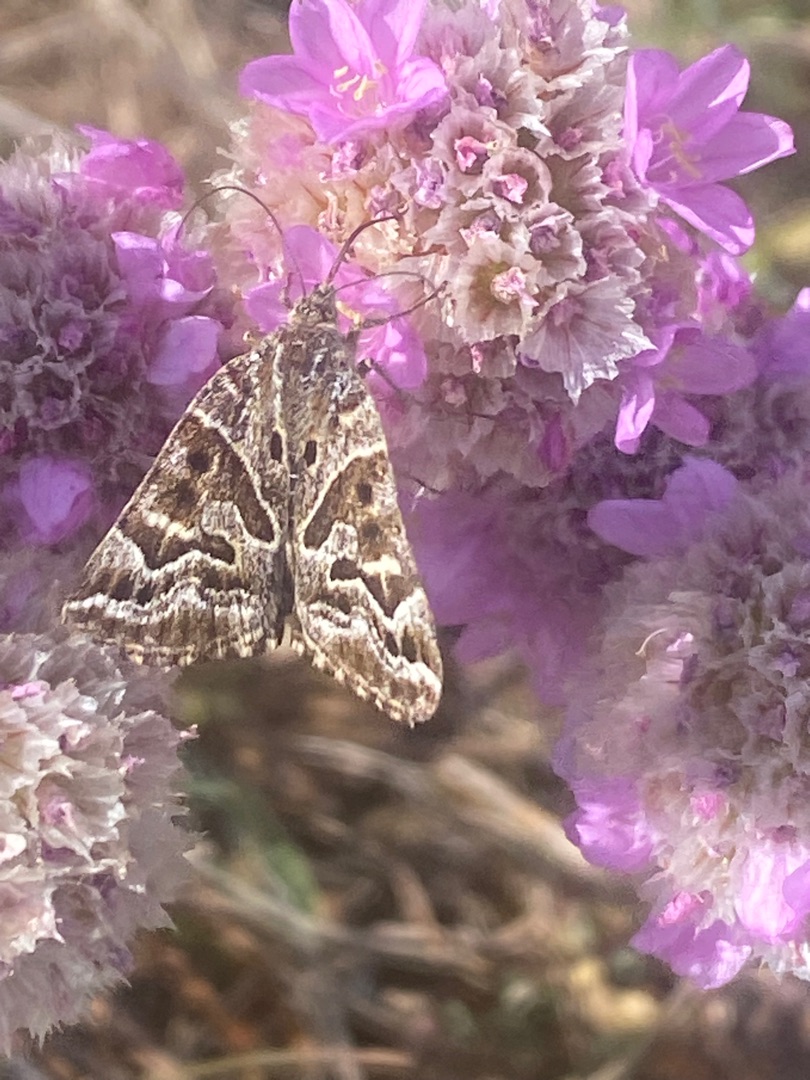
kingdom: Animalia
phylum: Arthropoda
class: Insecta
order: Lepidoptera
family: Erebidae
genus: Callistege
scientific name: Callistege mi
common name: Marmoreret kløverugle
